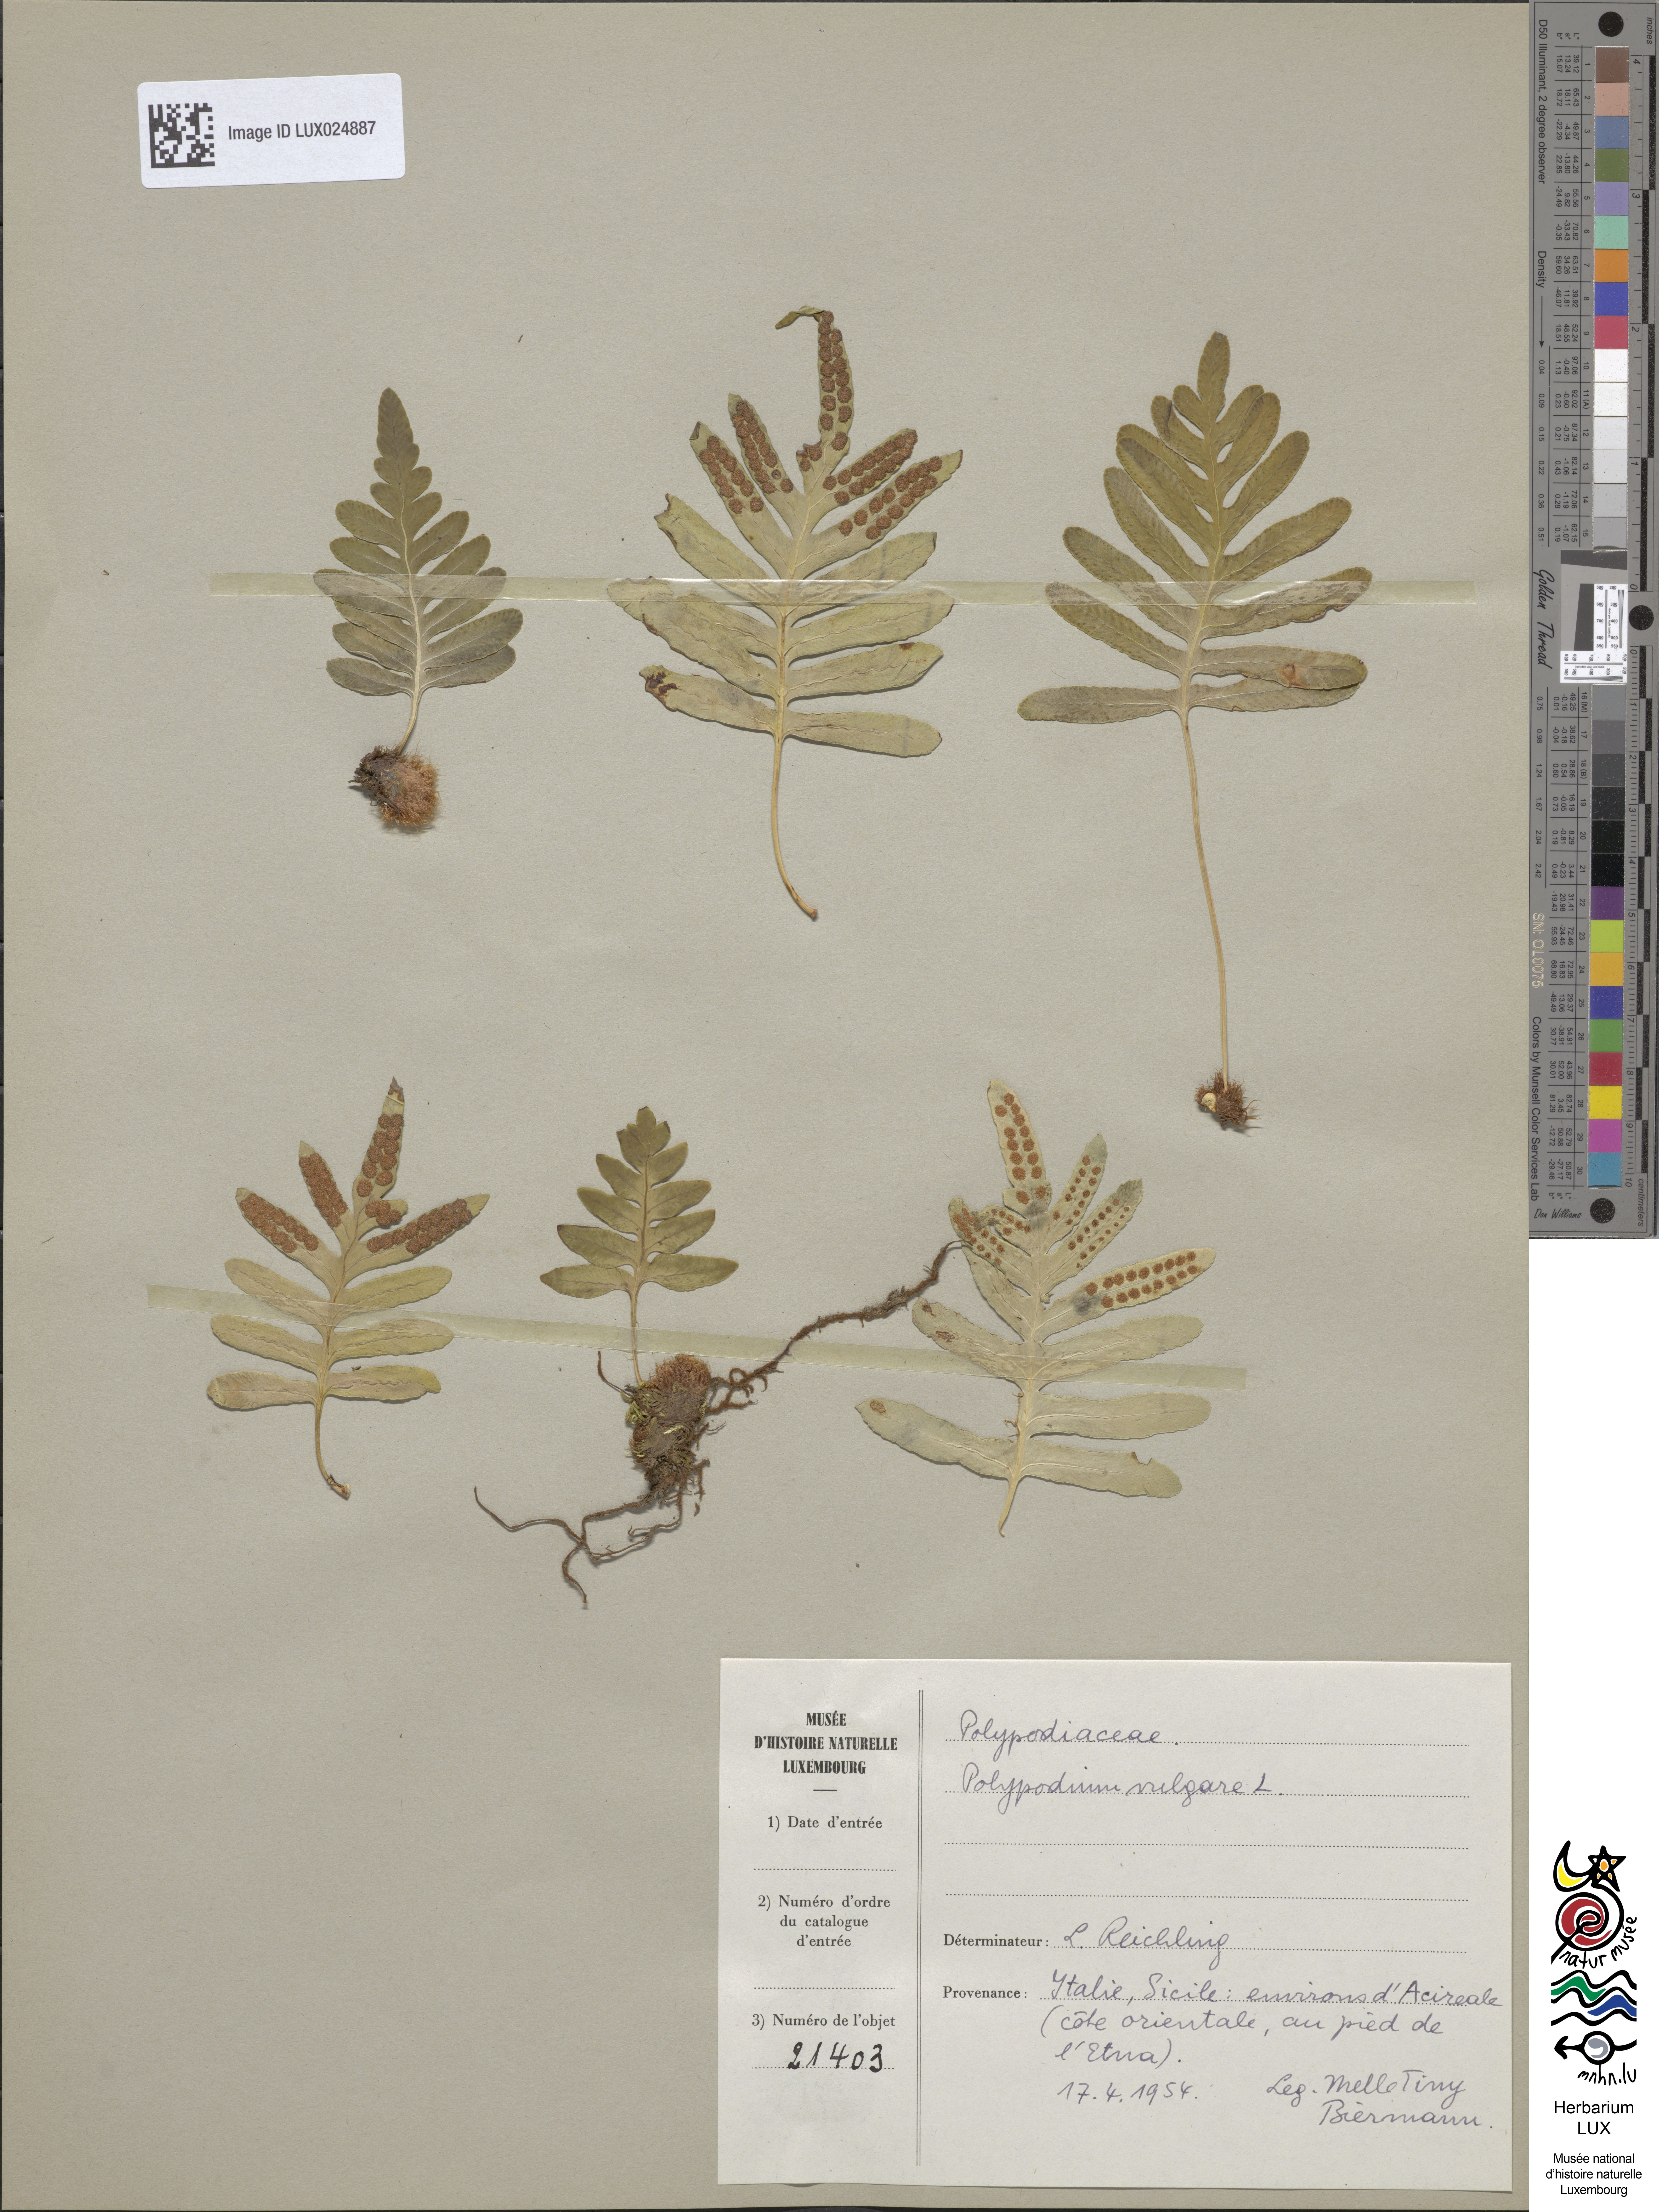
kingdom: Plantae
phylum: Tracheophyta
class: Polypodiopsida
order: Polypodiales
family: Polypodiaceae
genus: Polypodium
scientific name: Polypodium vulgare
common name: Common polypody
